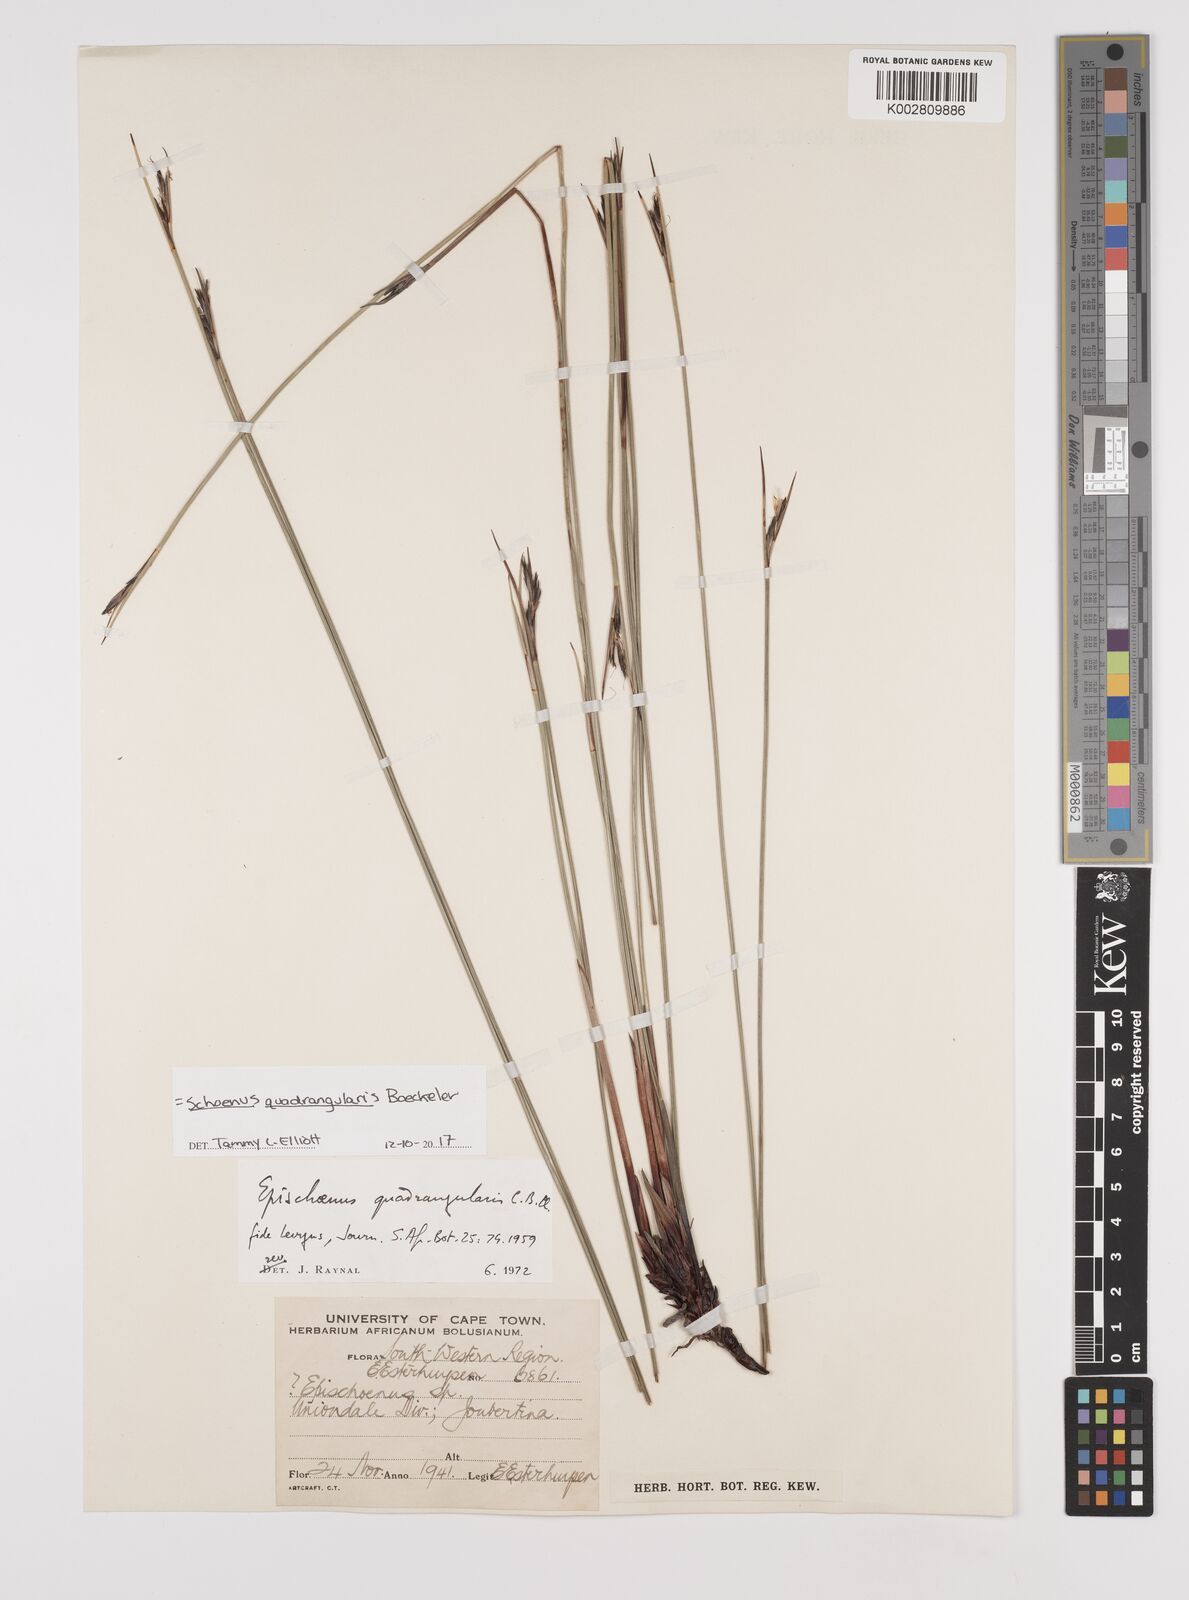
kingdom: Plantae
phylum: Tracheophyta
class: Liliopsida
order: Poales
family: Cyperaceae
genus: Schoenus
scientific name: Schoenus
